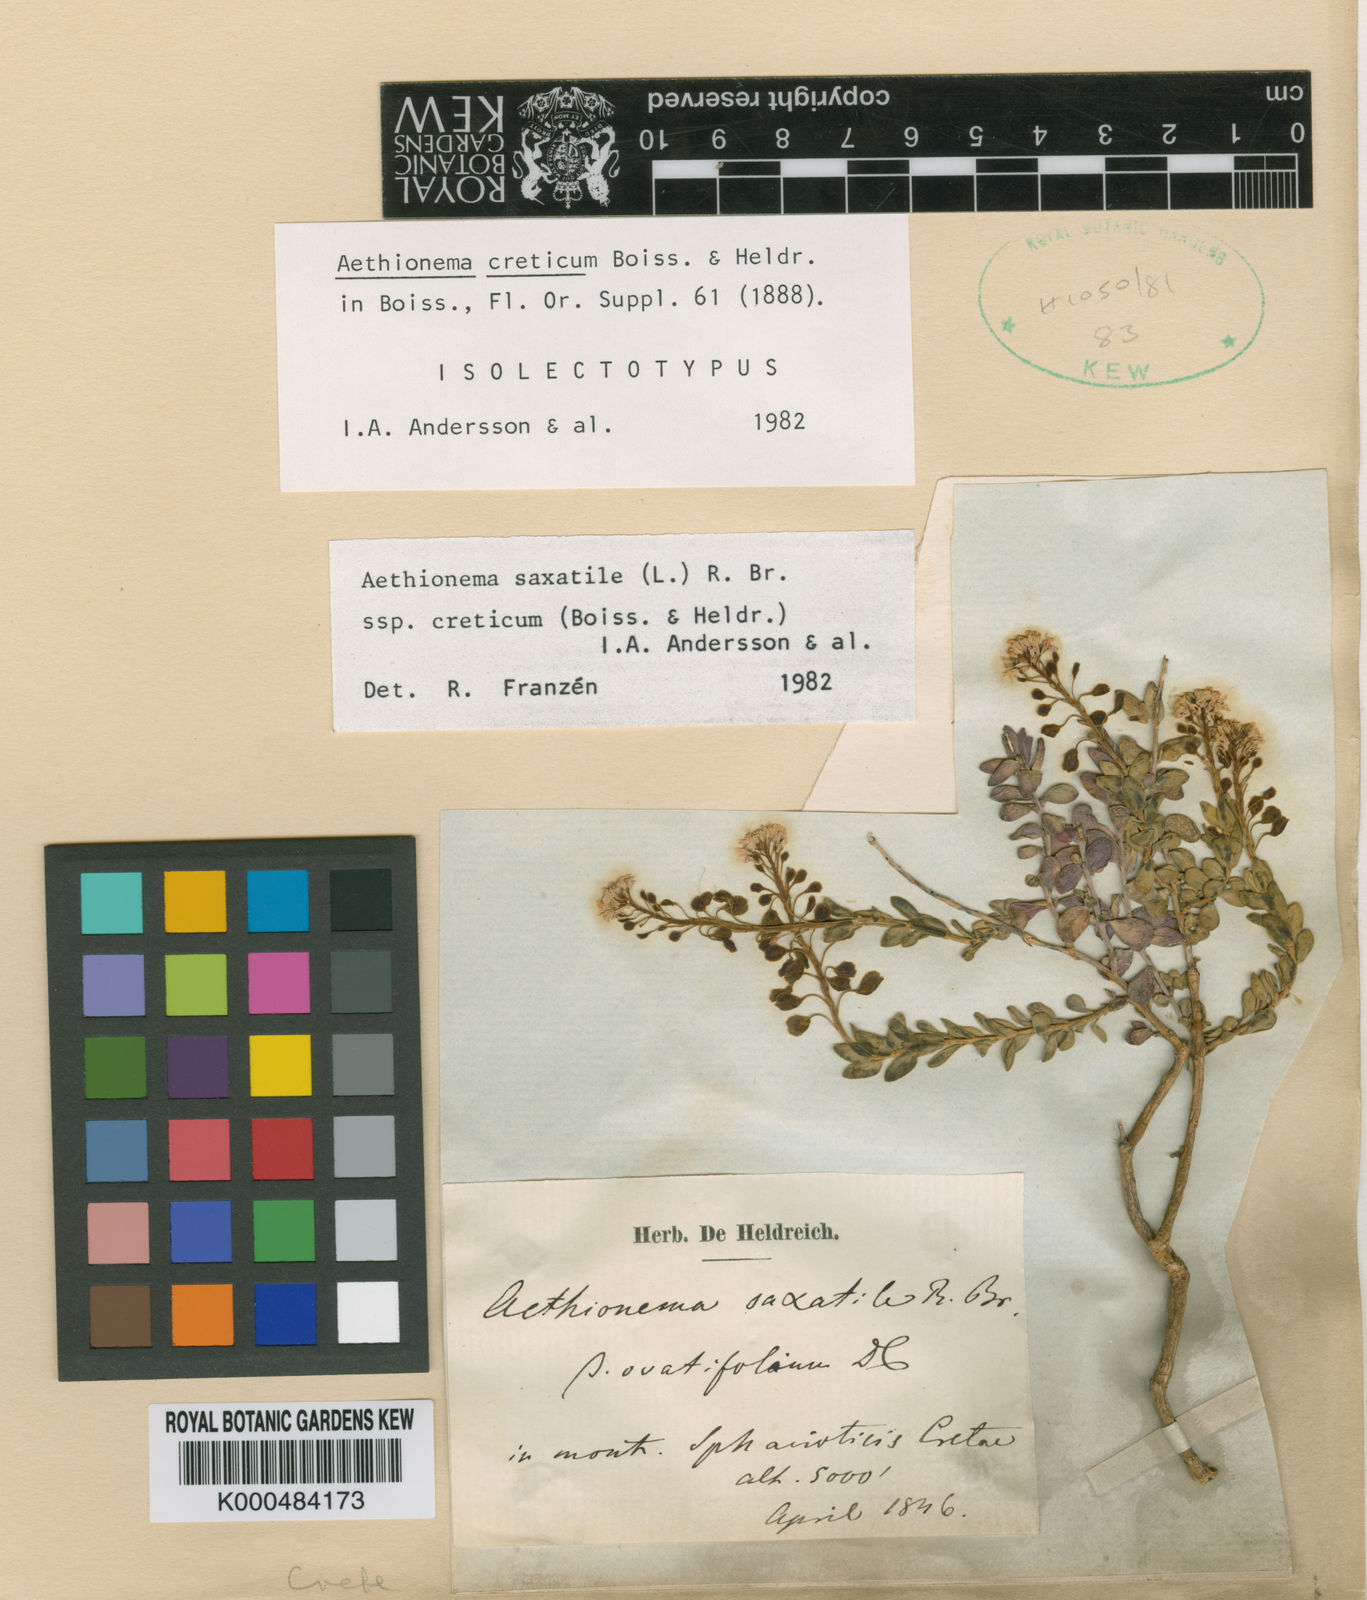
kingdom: Plantae
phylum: Tracheophyta
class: Magnoliopsida
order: Brassicales
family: Brassicaceae
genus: Aethionema
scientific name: Aethionema
